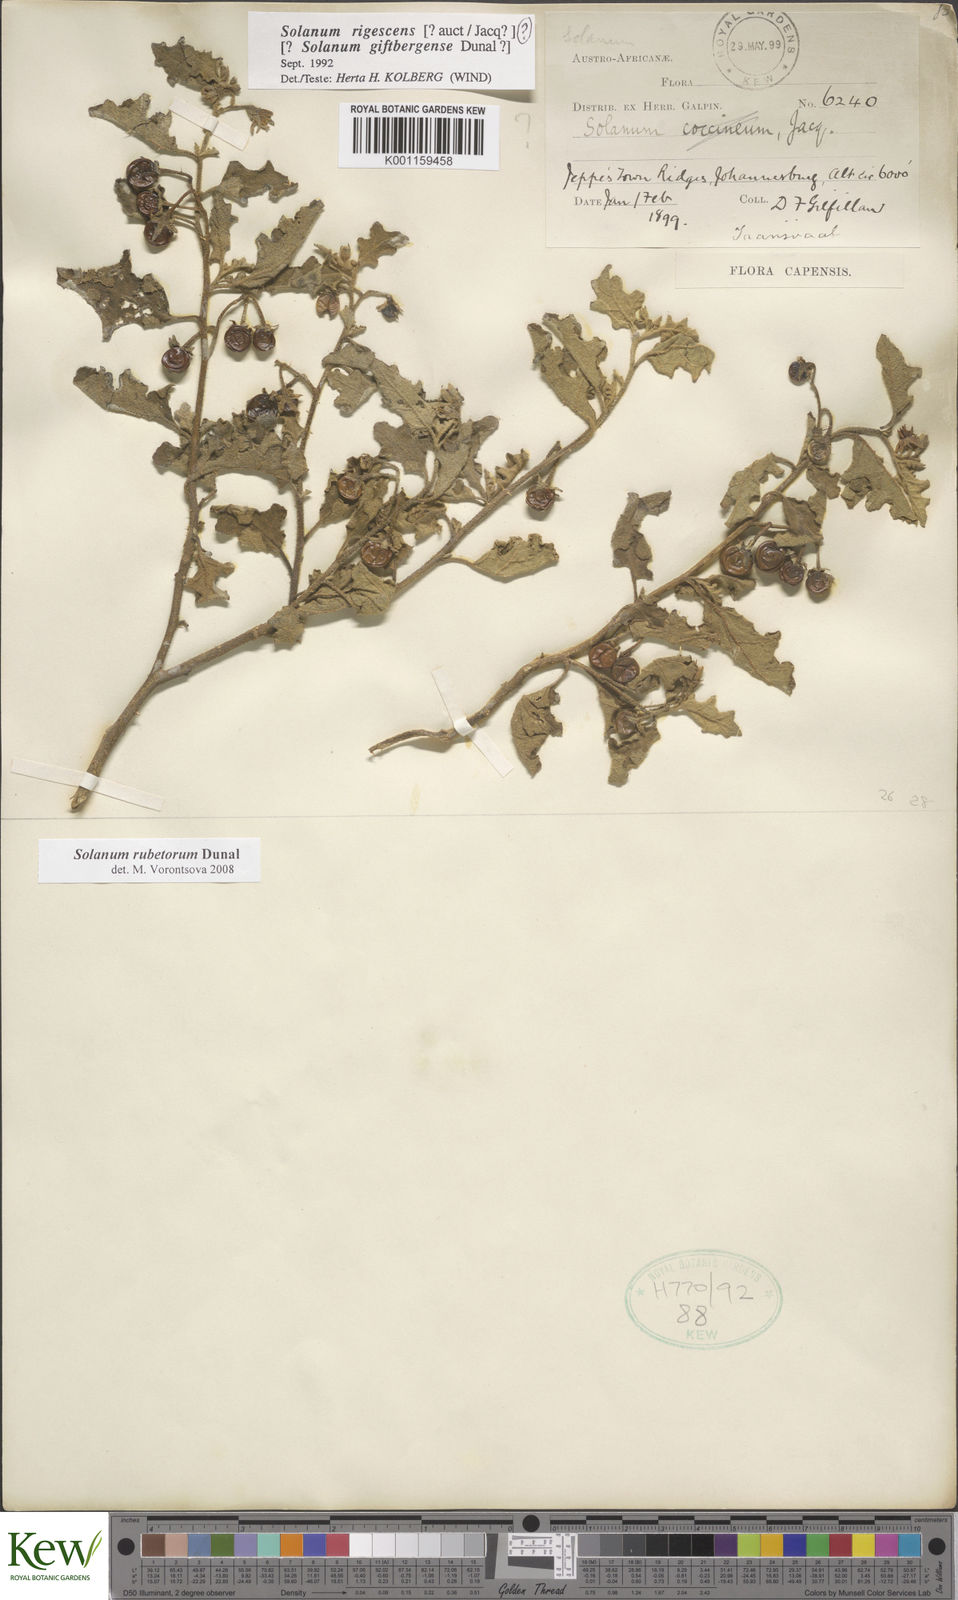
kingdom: Plantae
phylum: Tracheophyta
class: Magnoliopsida
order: Solanales
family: Solanaceae
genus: Solanum
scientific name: Solanum rubetorum
